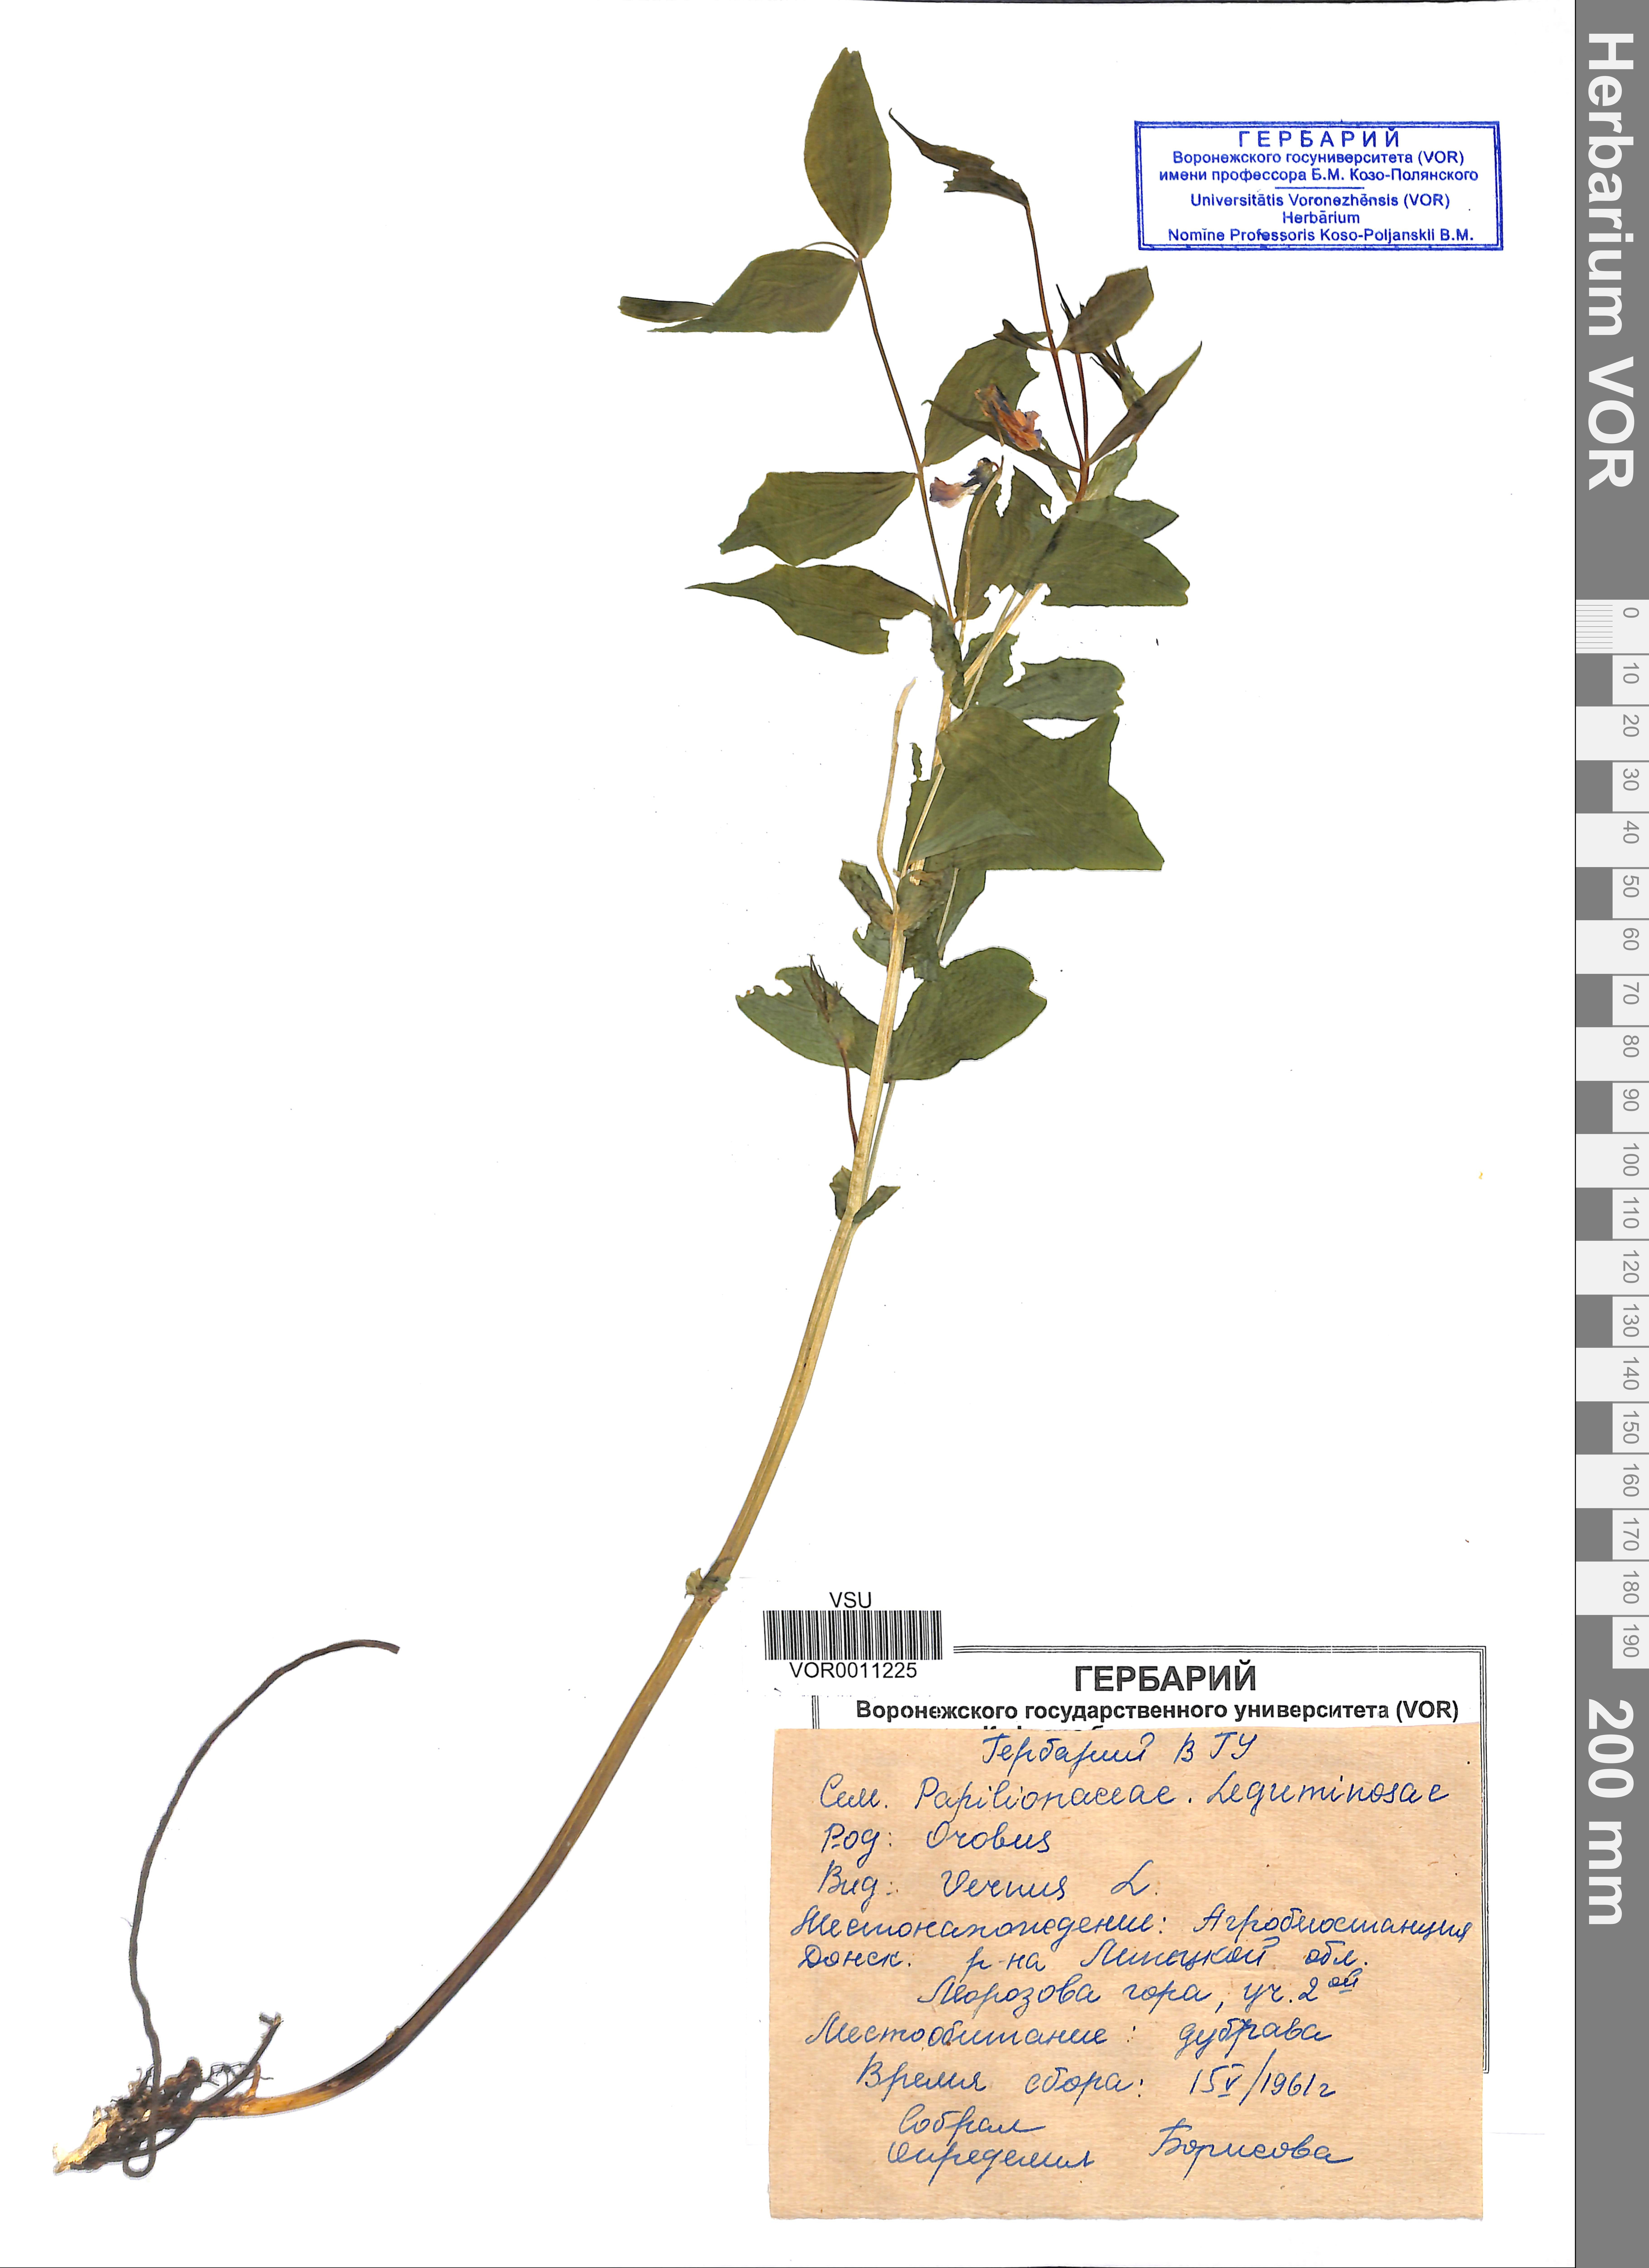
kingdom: Plantae
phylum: Tracheophyta
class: Magnoliopsida
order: Fabales
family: Fabaceae
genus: Lathyrus
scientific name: Lathyrus vernus
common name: Spring pea
